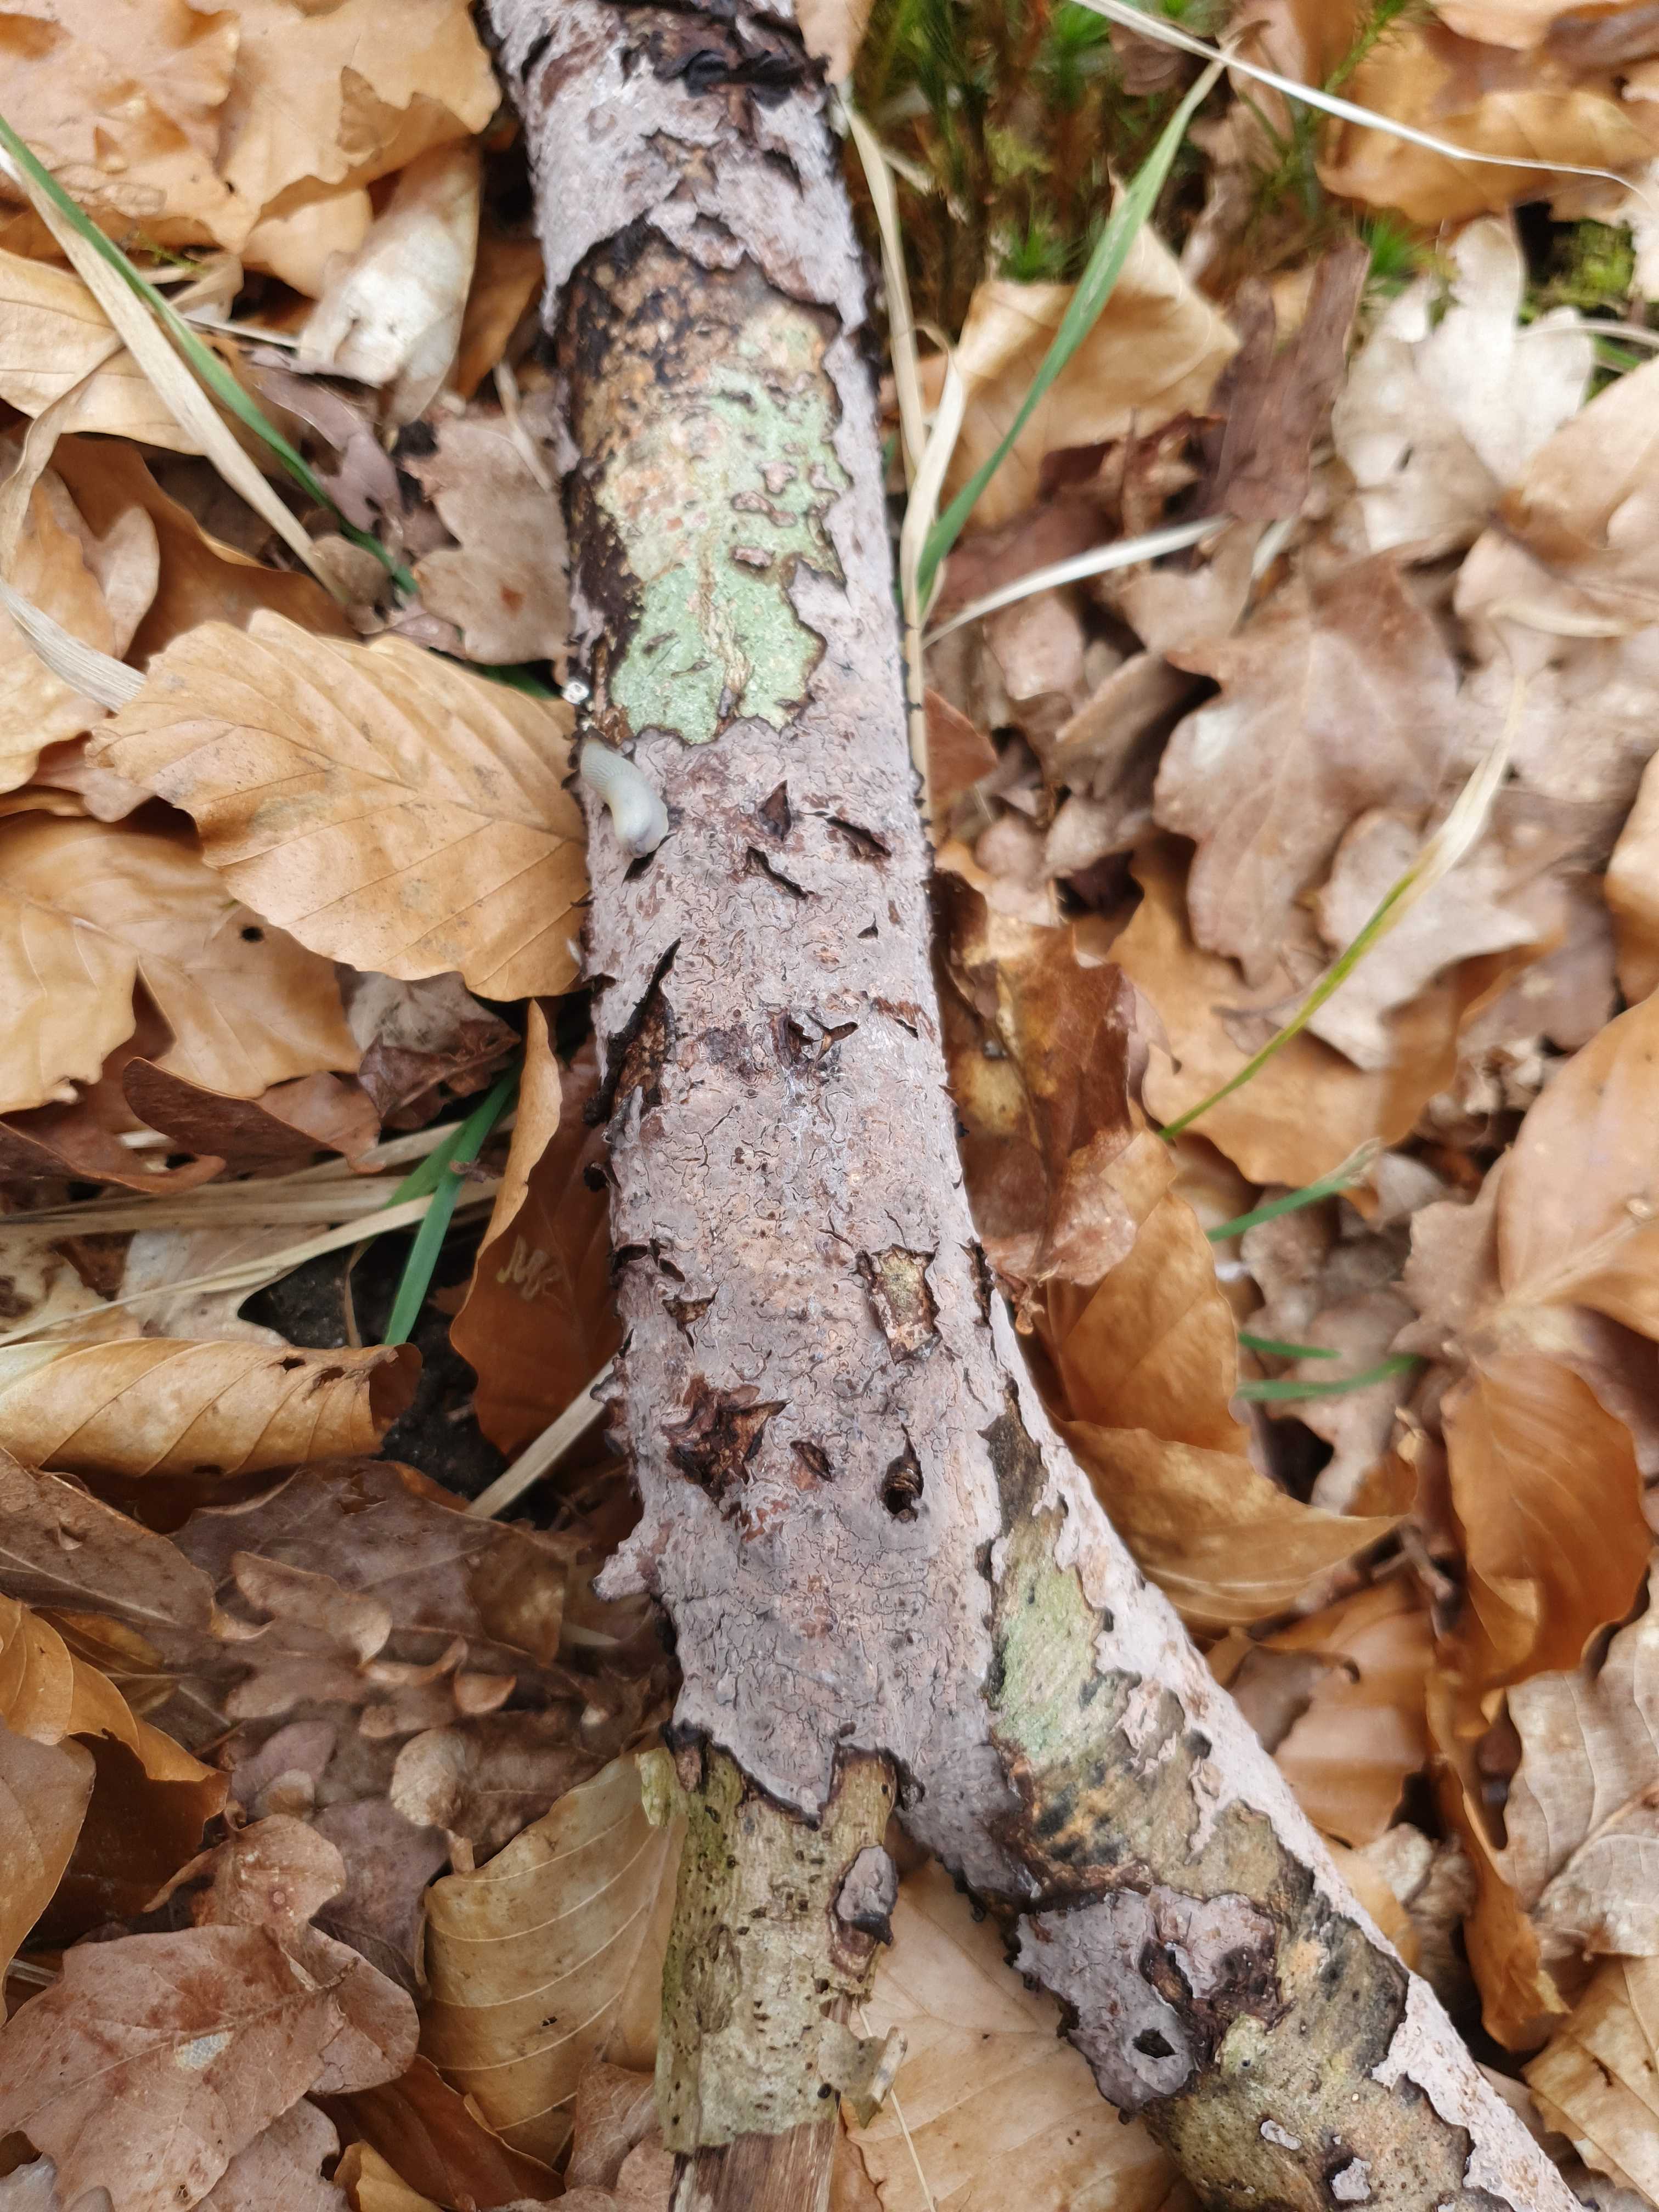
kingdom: Fungi
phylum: Basidiomycota
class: Agaricomycetes
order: Russulales
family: Peniophoraceae
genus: Peniophora
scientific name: Peniophora quercina
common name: ege-voksskind
